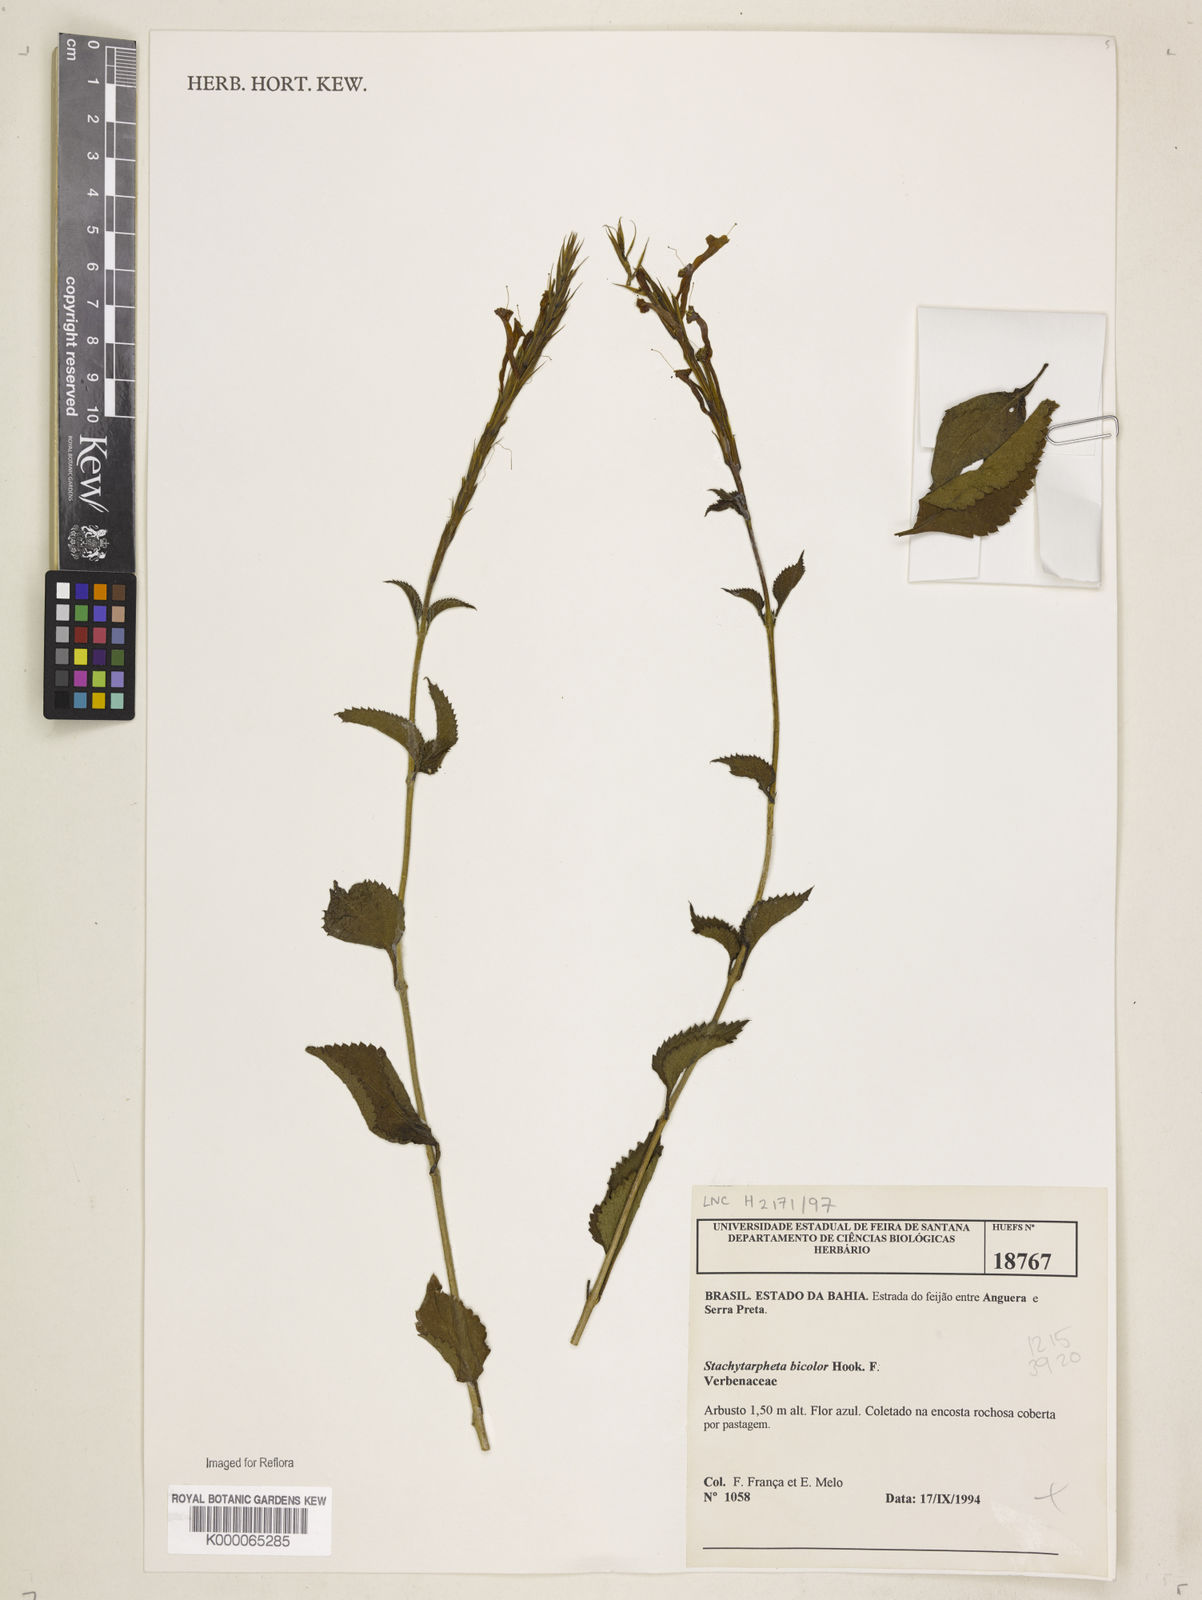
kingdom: Plantae
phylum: Tracheophyta
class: Magnoliopsida
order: Lamiales
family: Verbenaceae
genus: Stachytarpheta
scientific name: Stachytarpheta bicolor
